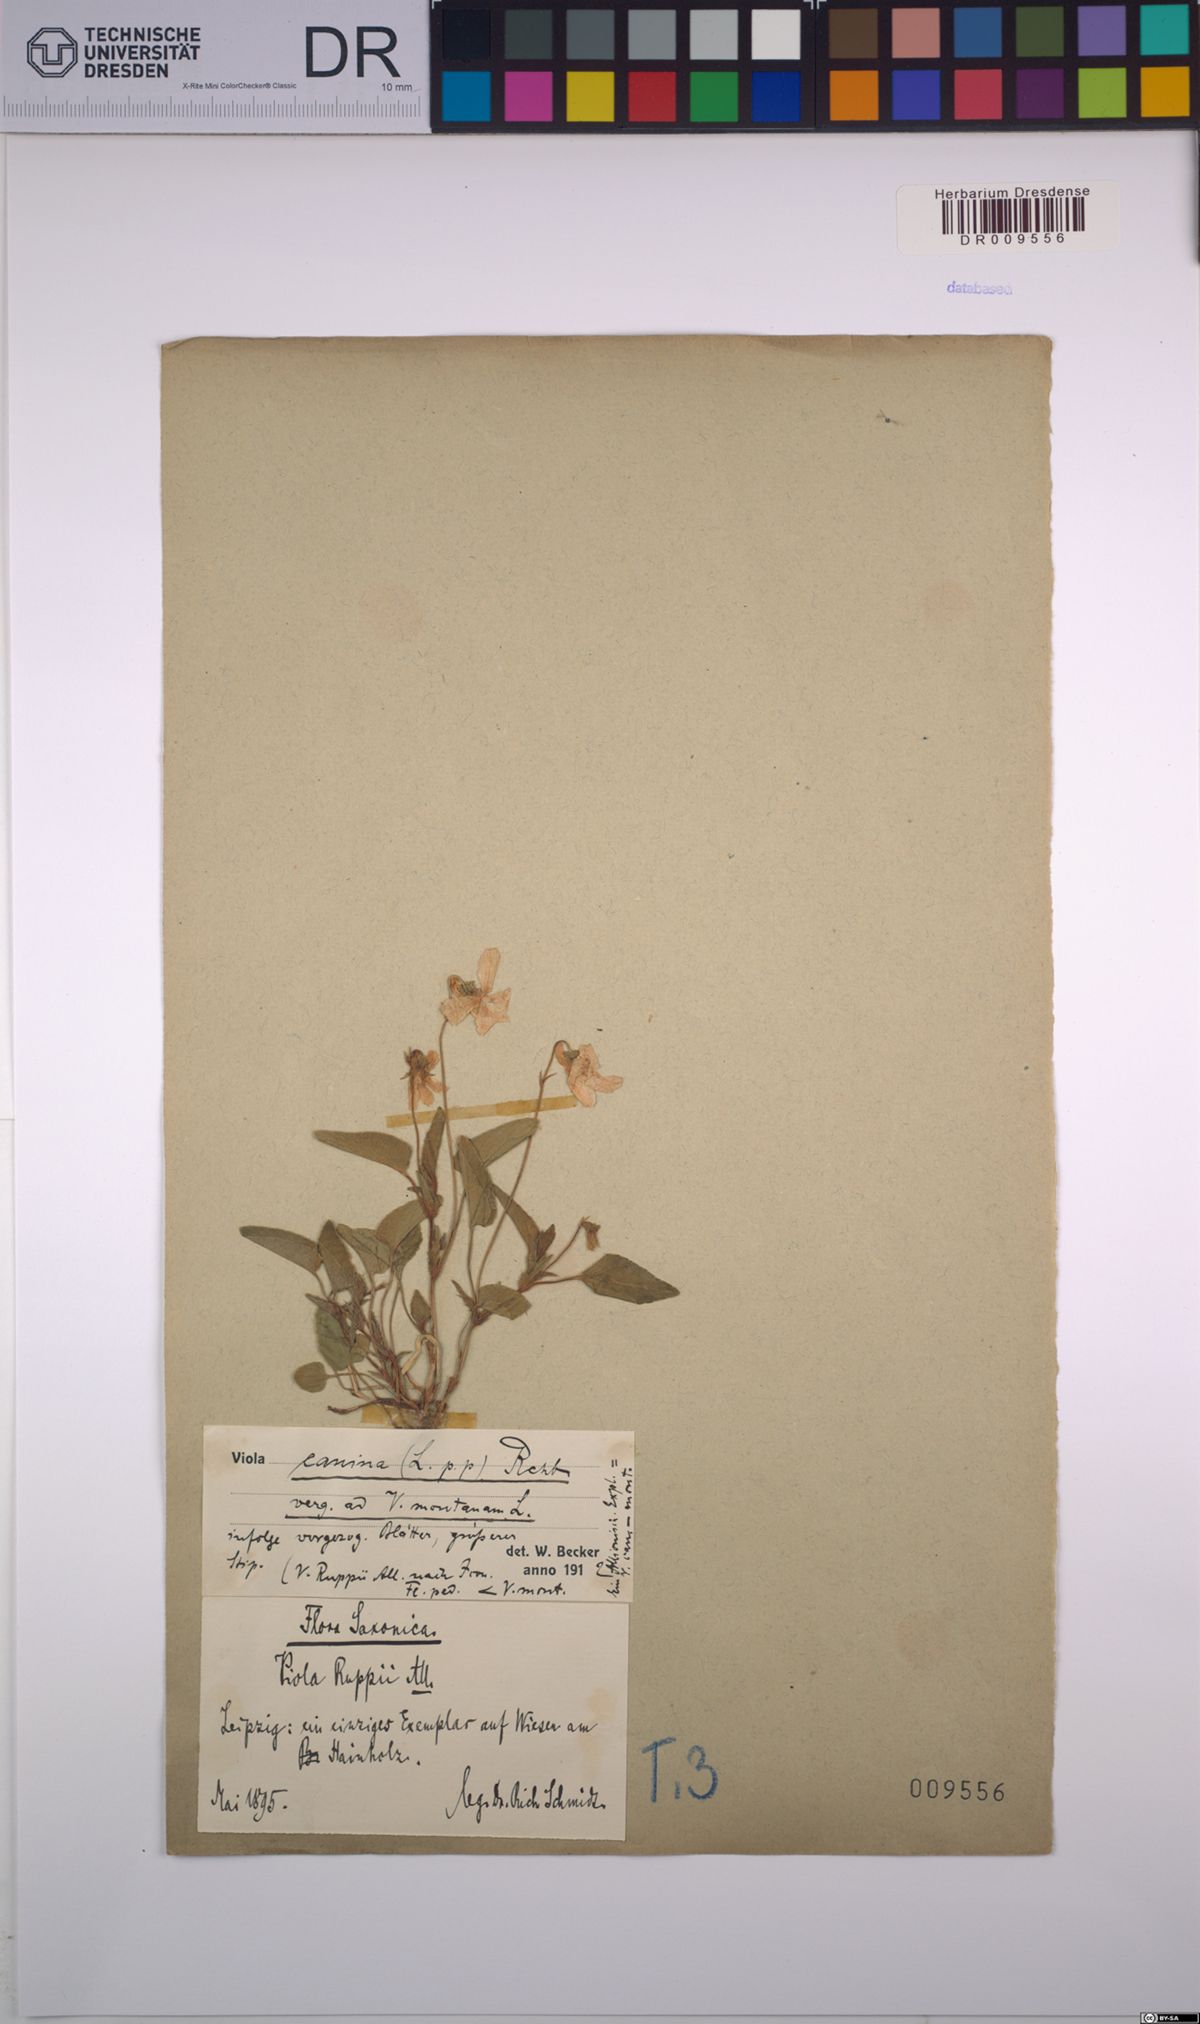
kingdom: Plantae
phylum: Tracheophyta
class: Magnoliopsida
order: Malpighiales
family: Violaceae
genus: Viola
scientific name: Viola canina
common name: Heath dog-violet
